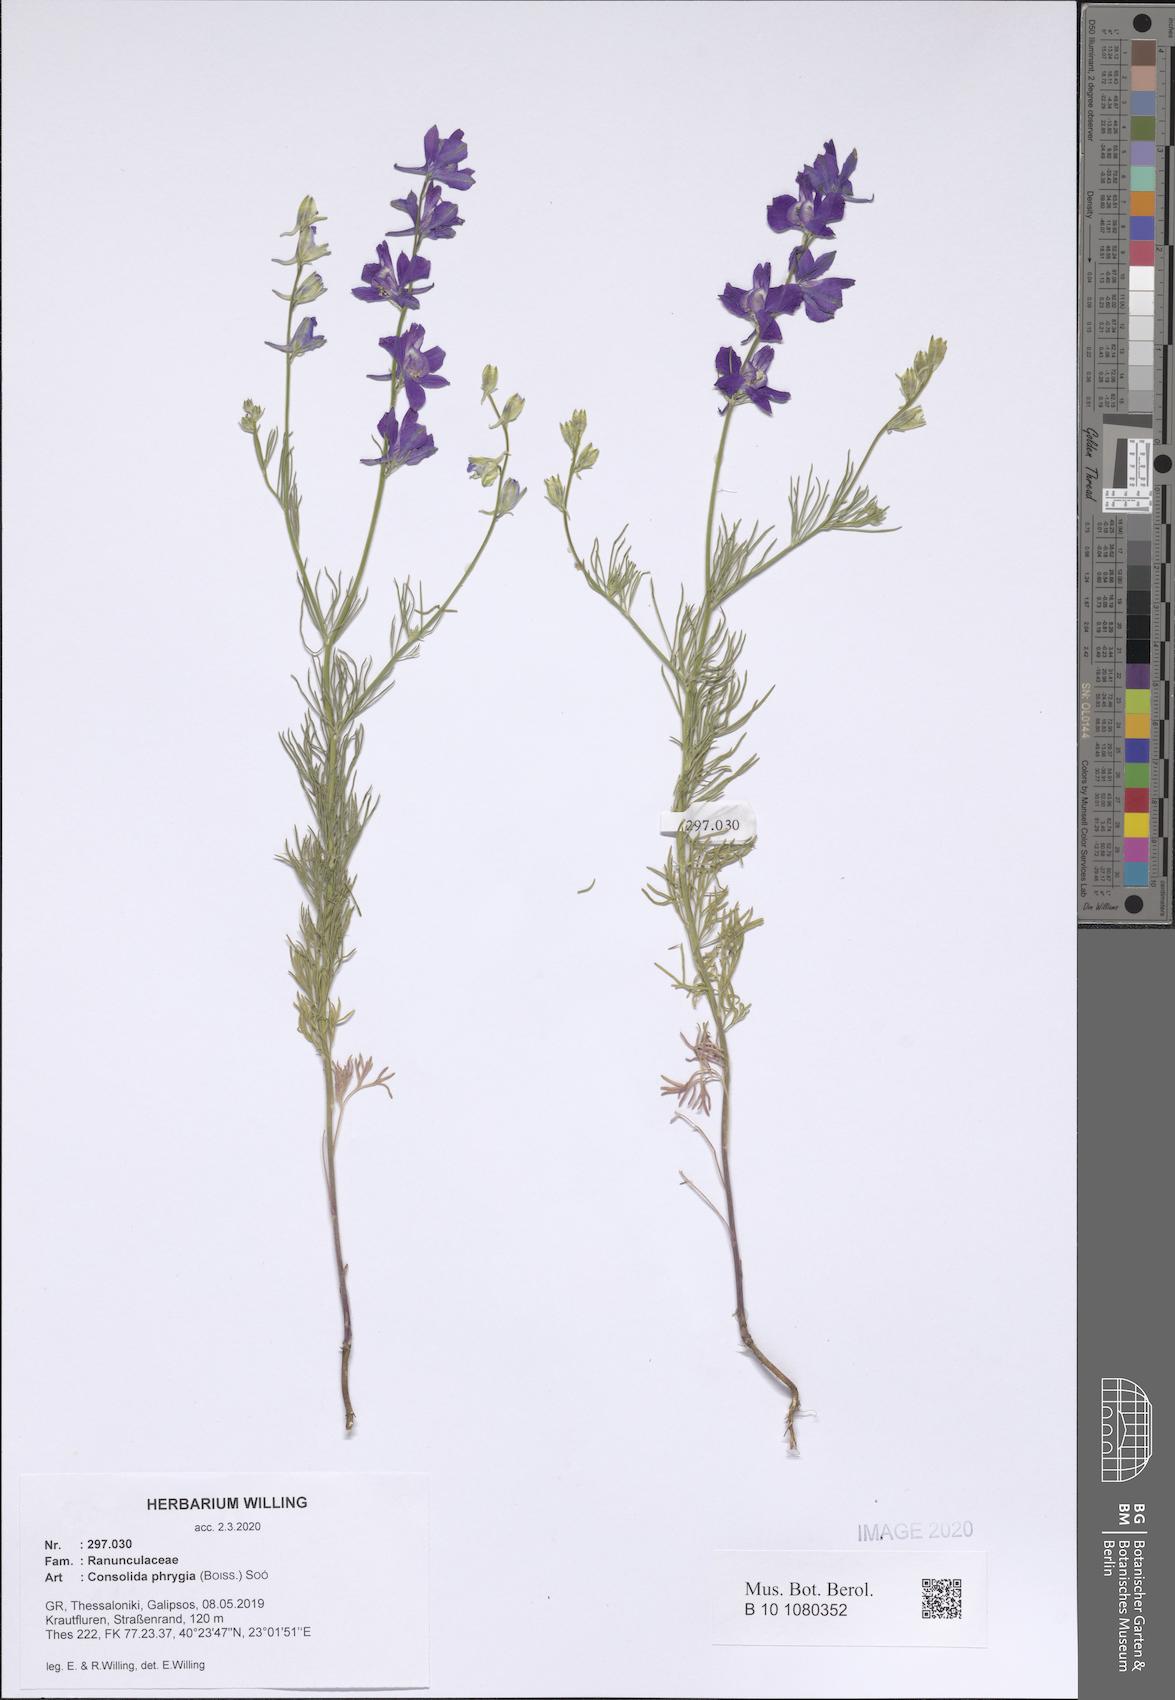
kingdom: Plantae
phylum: Tracheophyta
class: Magnoliopsida
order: Ranunculales
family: Ranunculaceae
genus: Delphinium
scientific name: Delphinium phrygium
